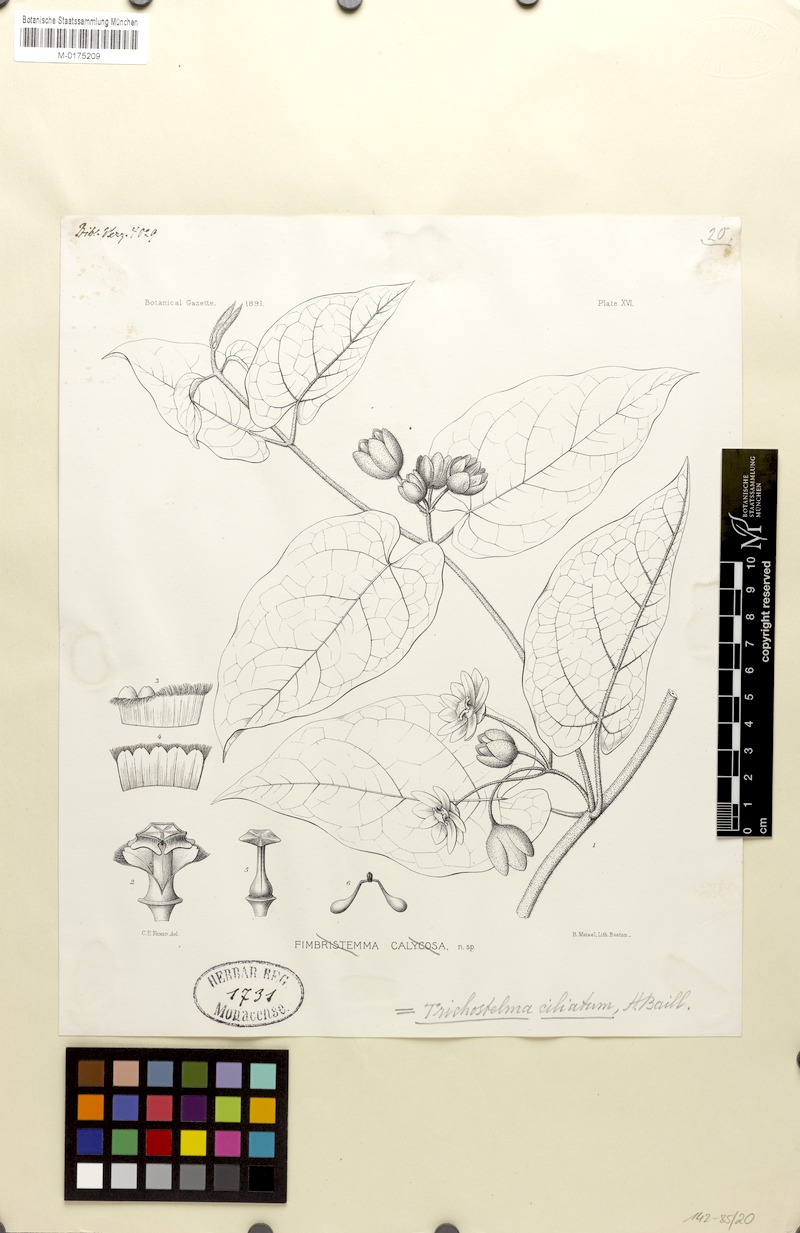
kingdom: Plantae
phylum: Tracheophyta
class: Magnoliopsida
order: Gentianales
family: Apocynaceae
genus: Gonolobus
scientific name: Gonolobus xanthotrichus
